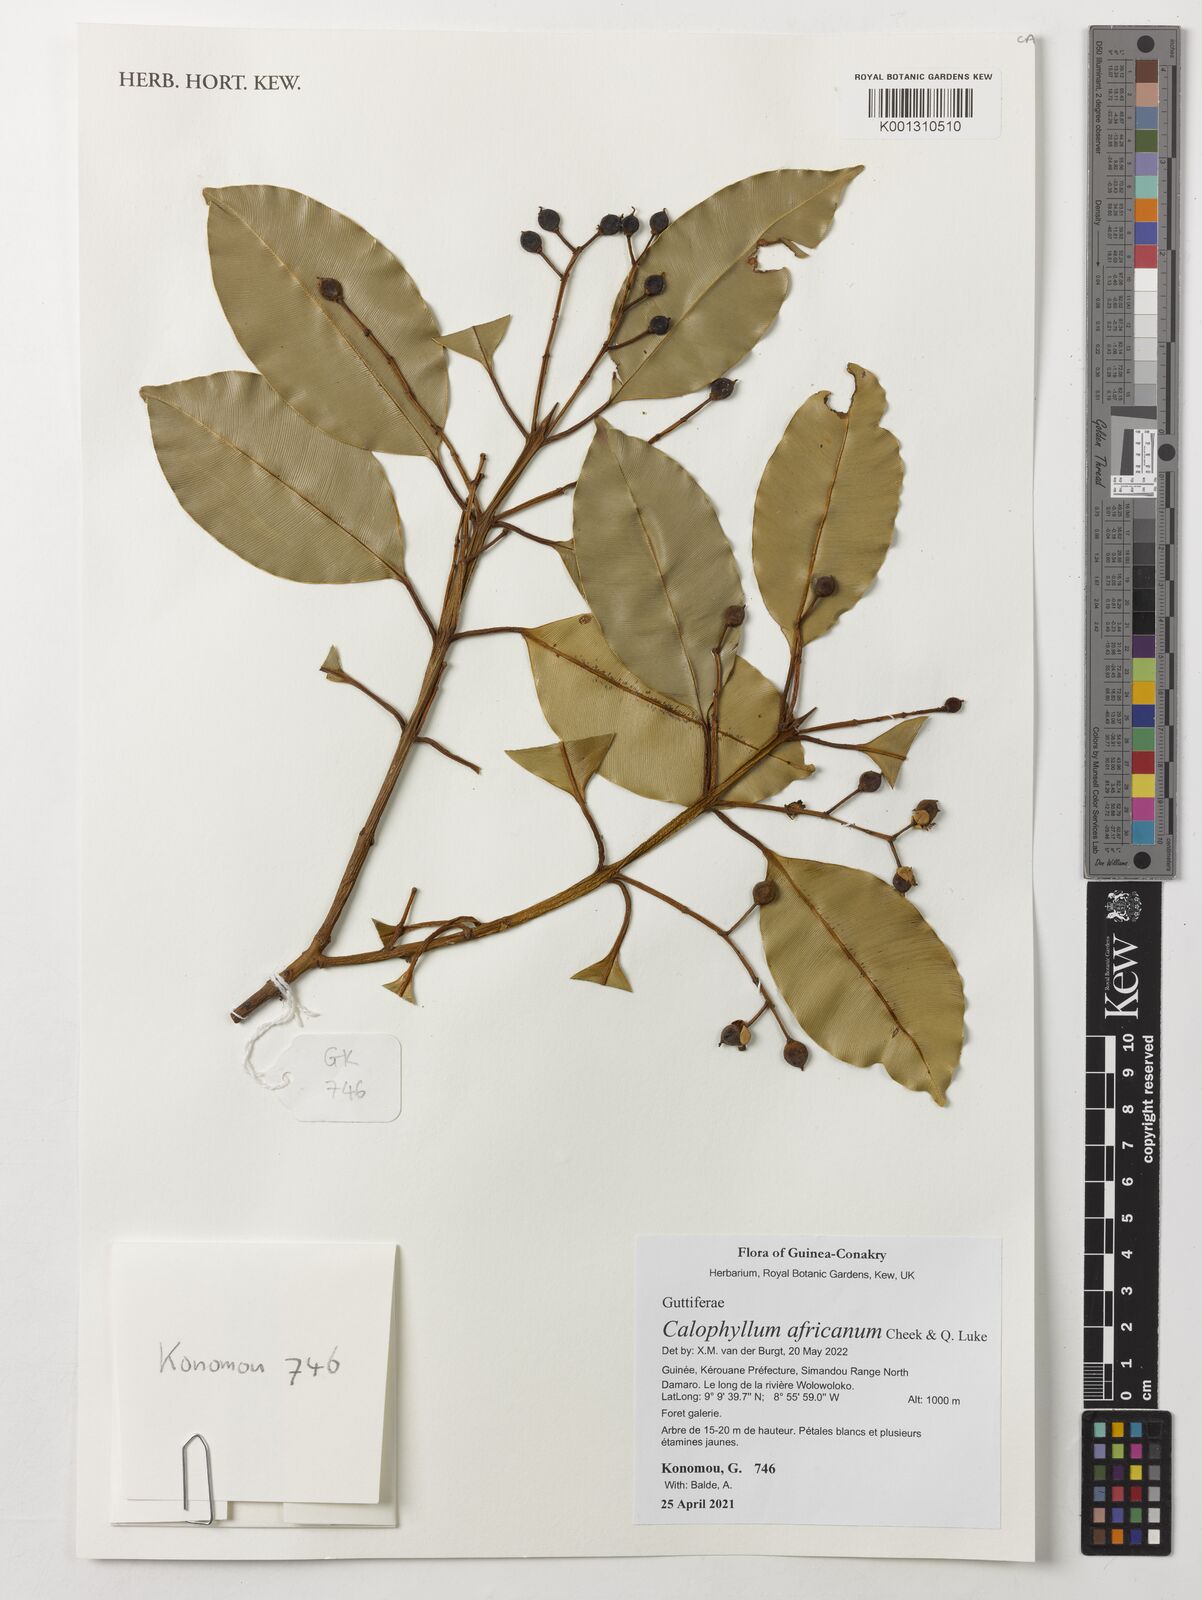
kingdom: Plantae
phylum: Tracheophyta
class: Magnoliopsida
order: Malpighiales
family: Calophyllaceae
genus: Calophyllum
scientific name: Calophyllum africanum
